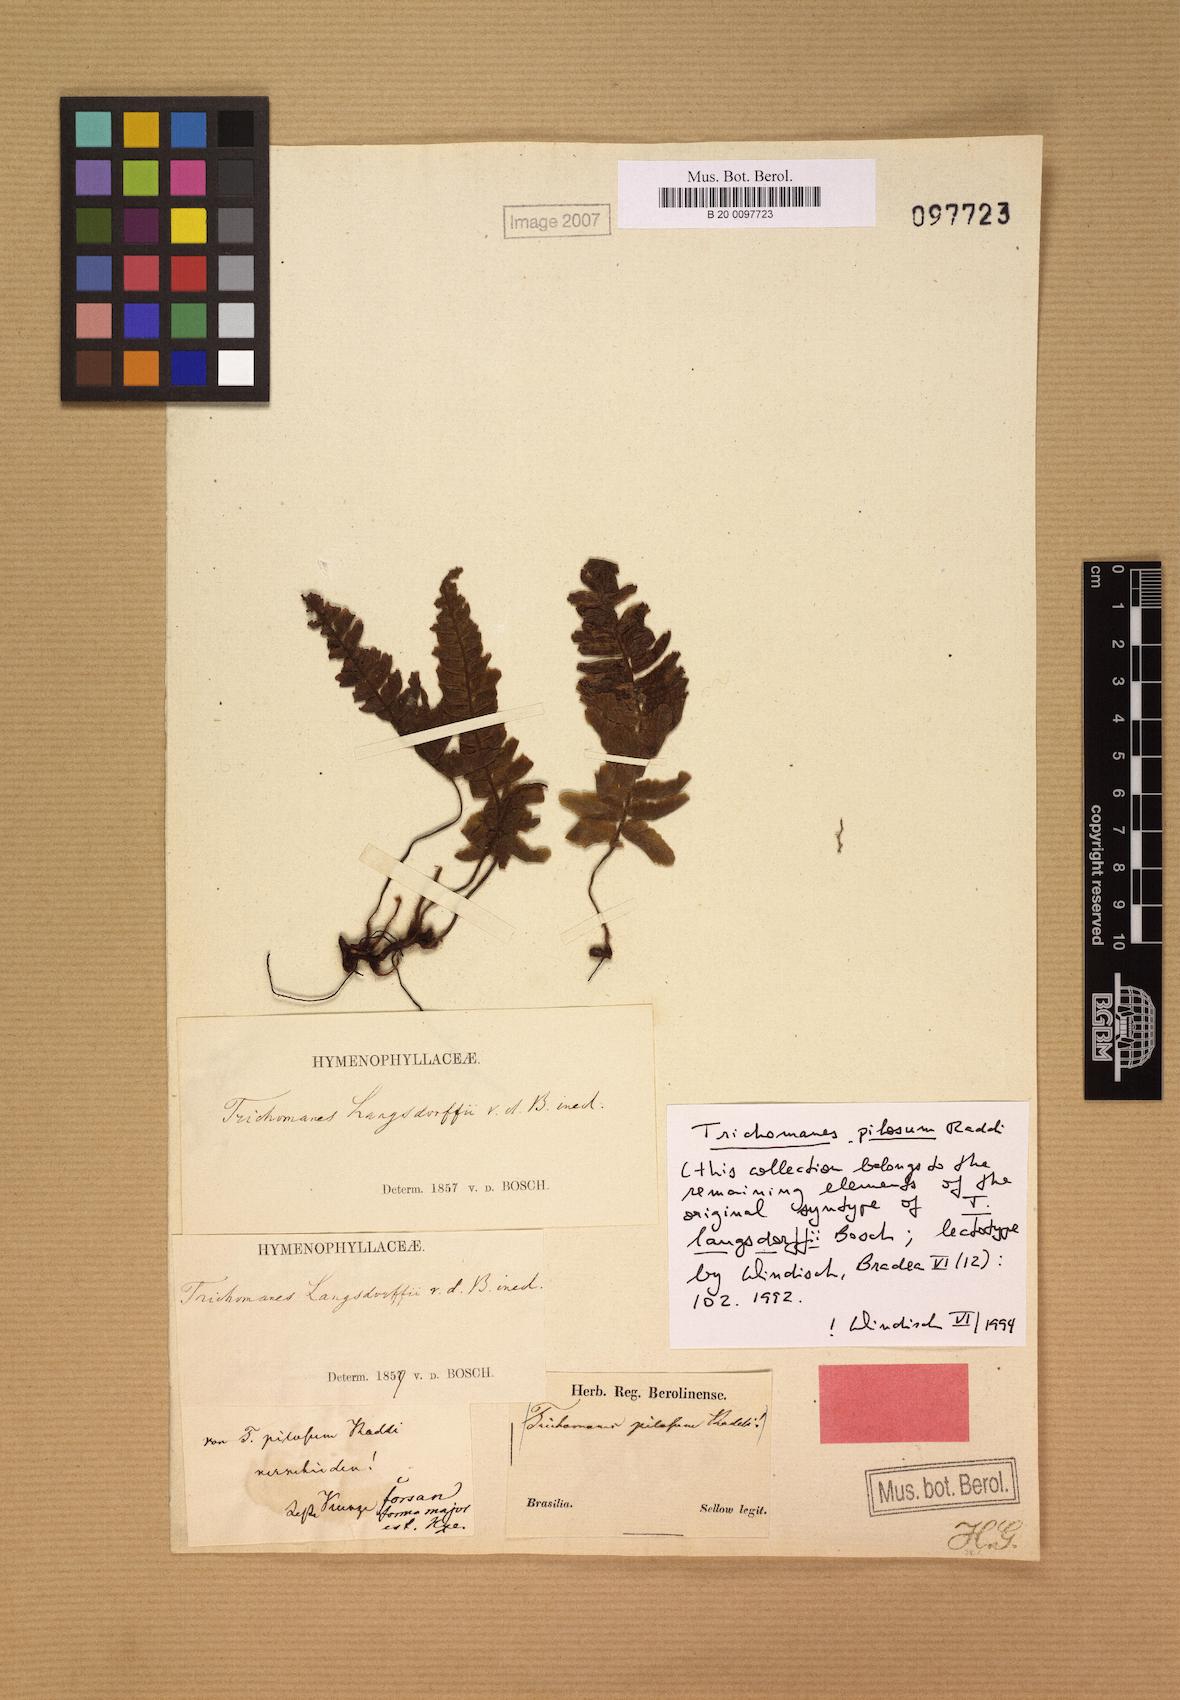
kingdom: Plantae
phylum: Tracheophyta
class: Polypodiopsida
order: Hymenophyllales
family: Hymenophyllaceae
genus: Trichomanes
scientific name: Trichomanes pilosum
